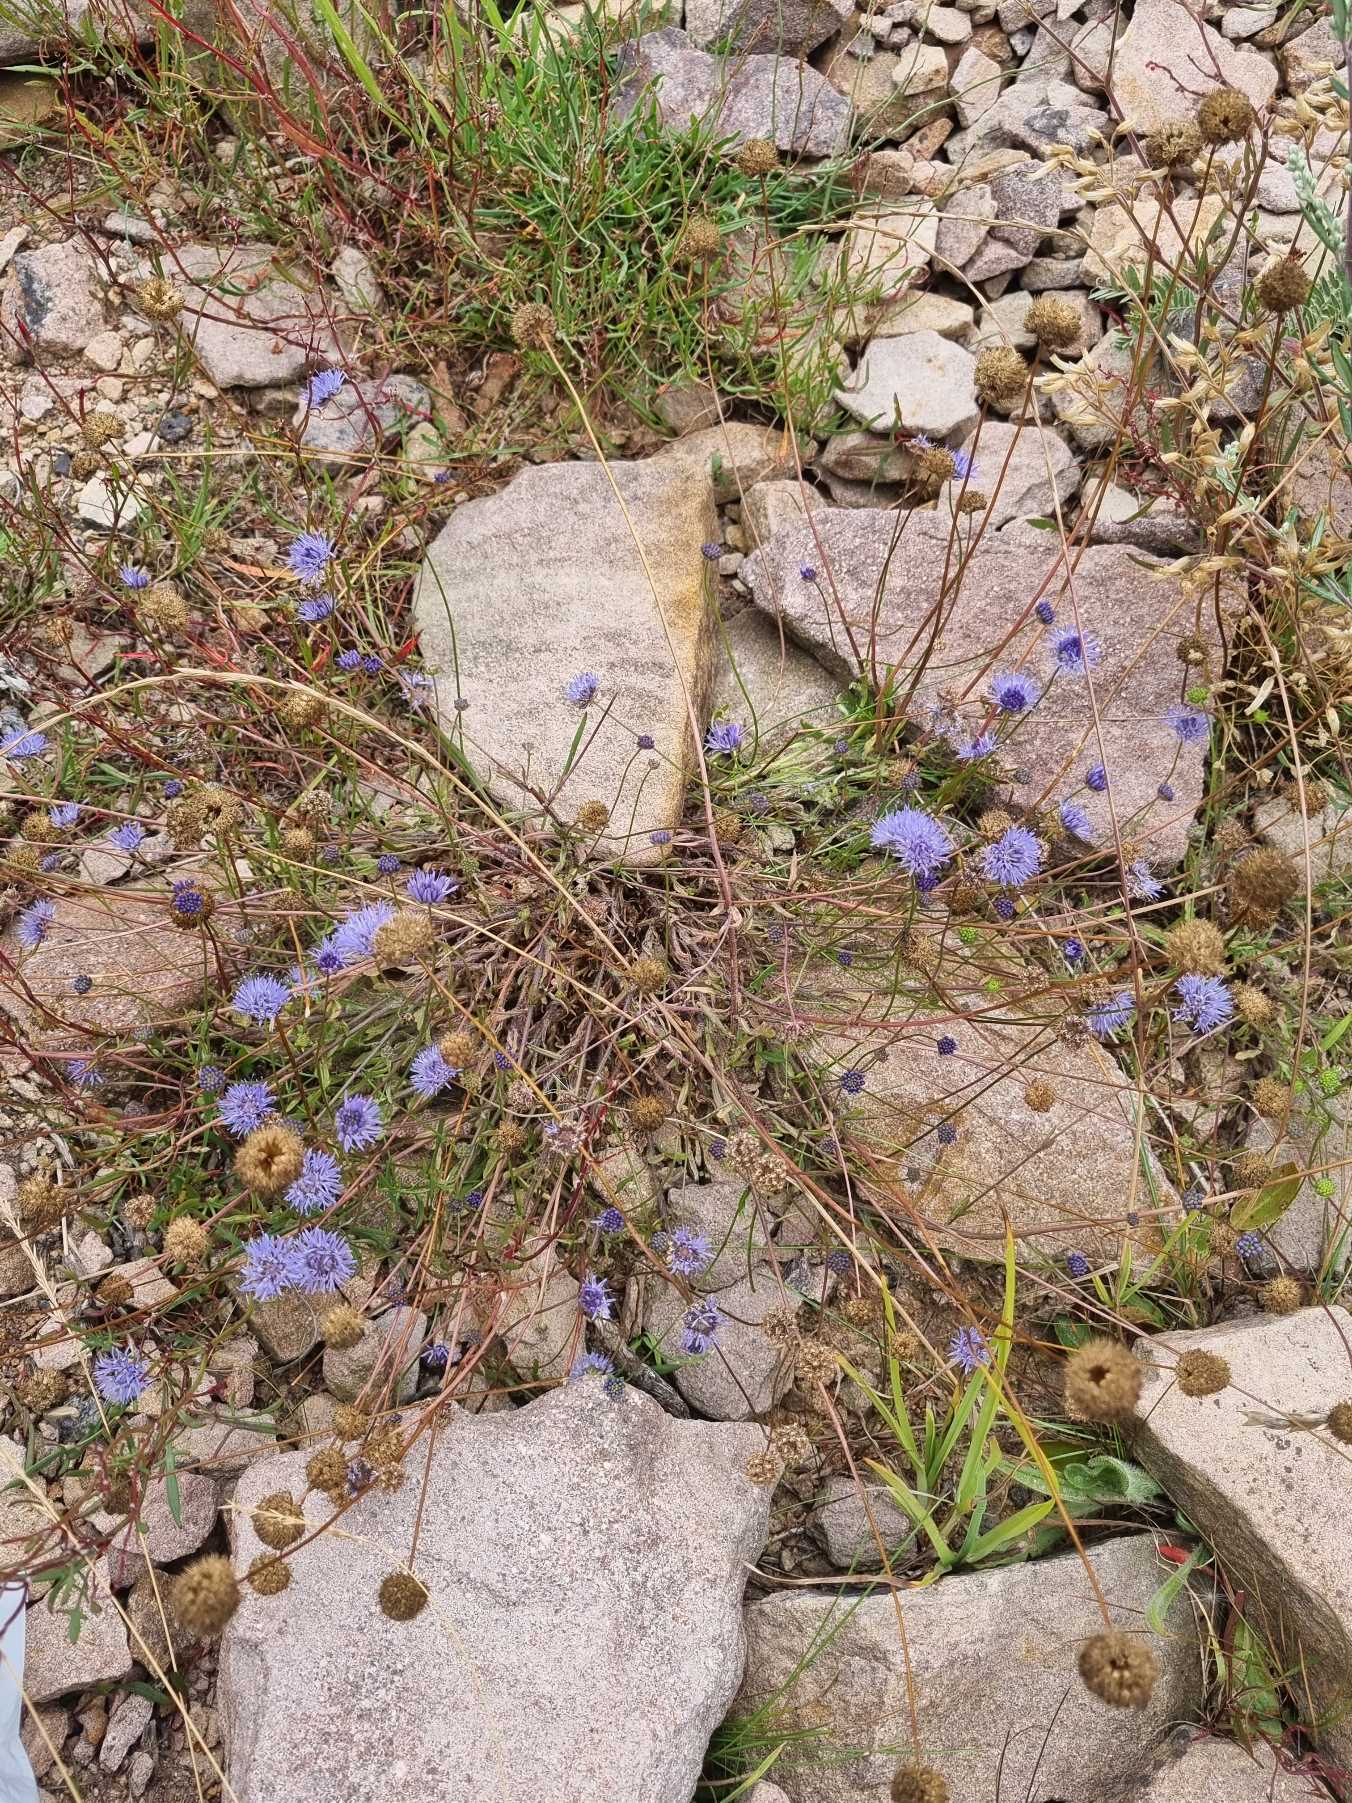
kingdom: Plantae
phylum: Tracheophyta
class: Magnoliopsida
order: Asterales
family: Campanulaceae
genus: Jasione
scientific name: Jasione montana
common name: Blåmunke
